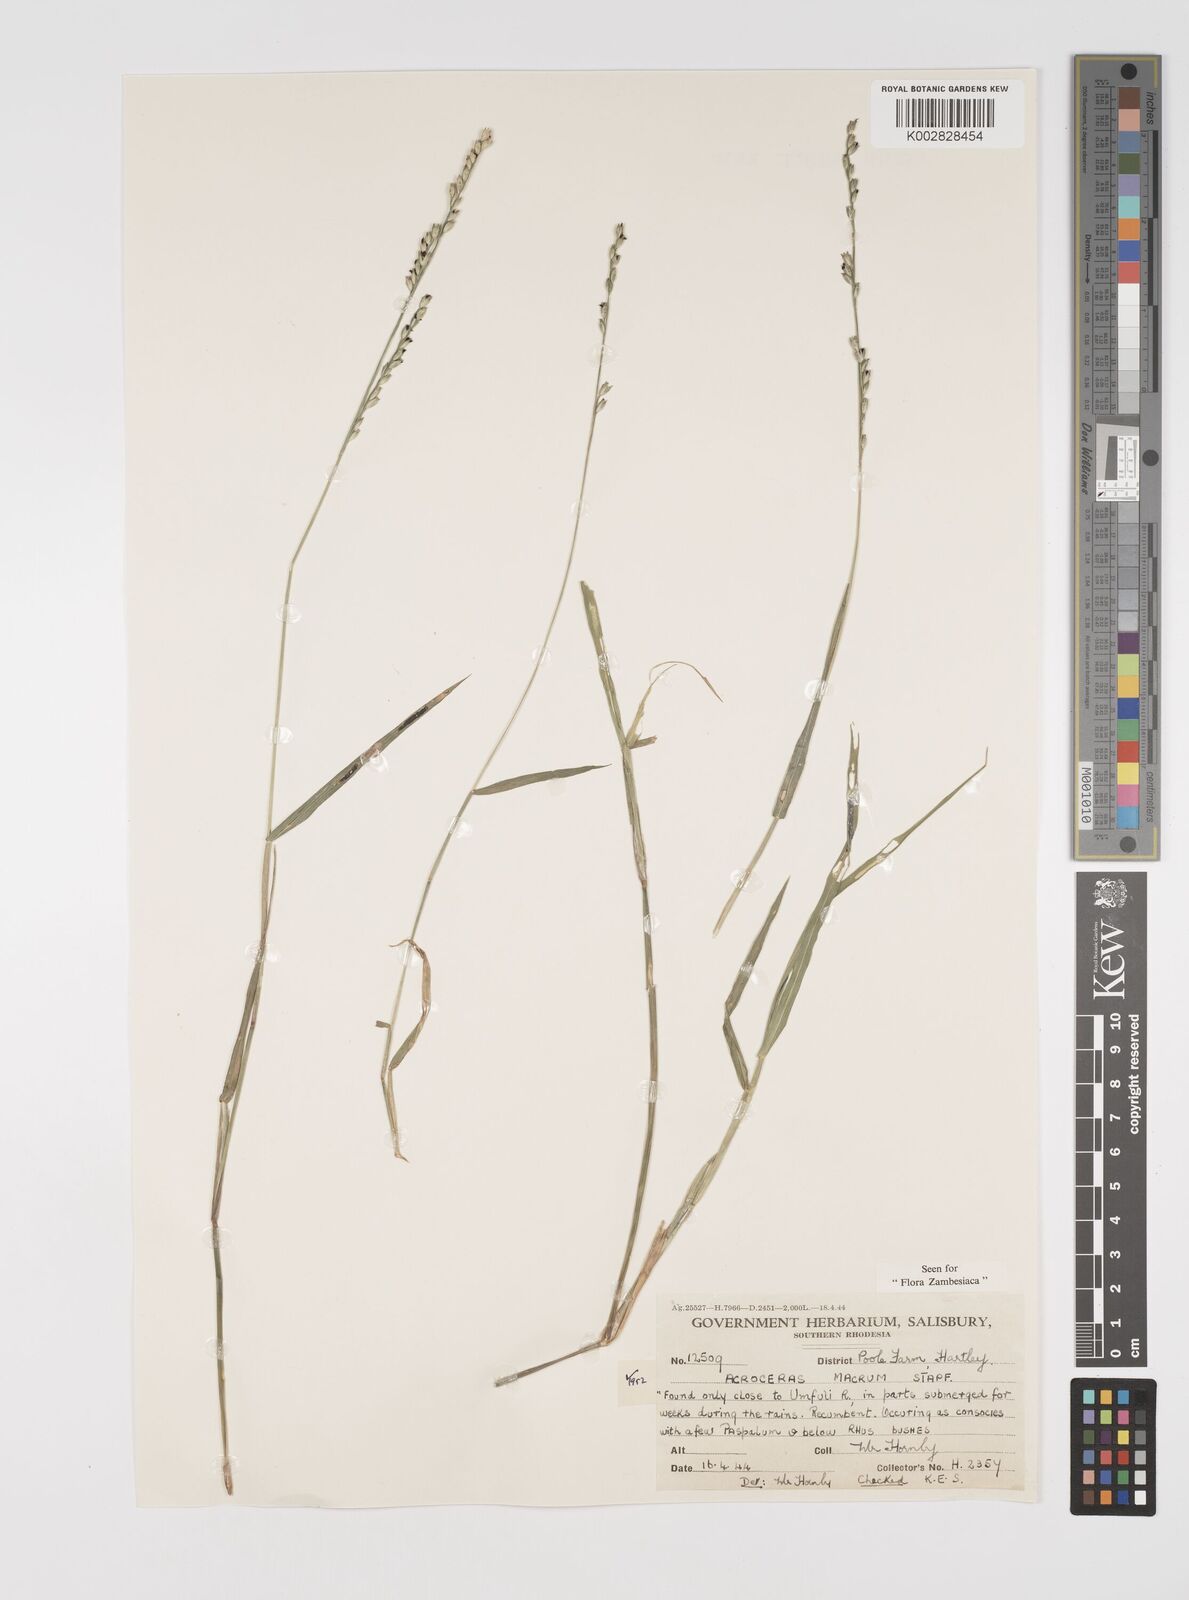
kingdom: Plantae
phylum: Tracheophyta
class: Liliopsida
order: Poales
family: Poaceae
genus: Acroceras
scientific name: Acroceras macrum
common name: Nyl grass
